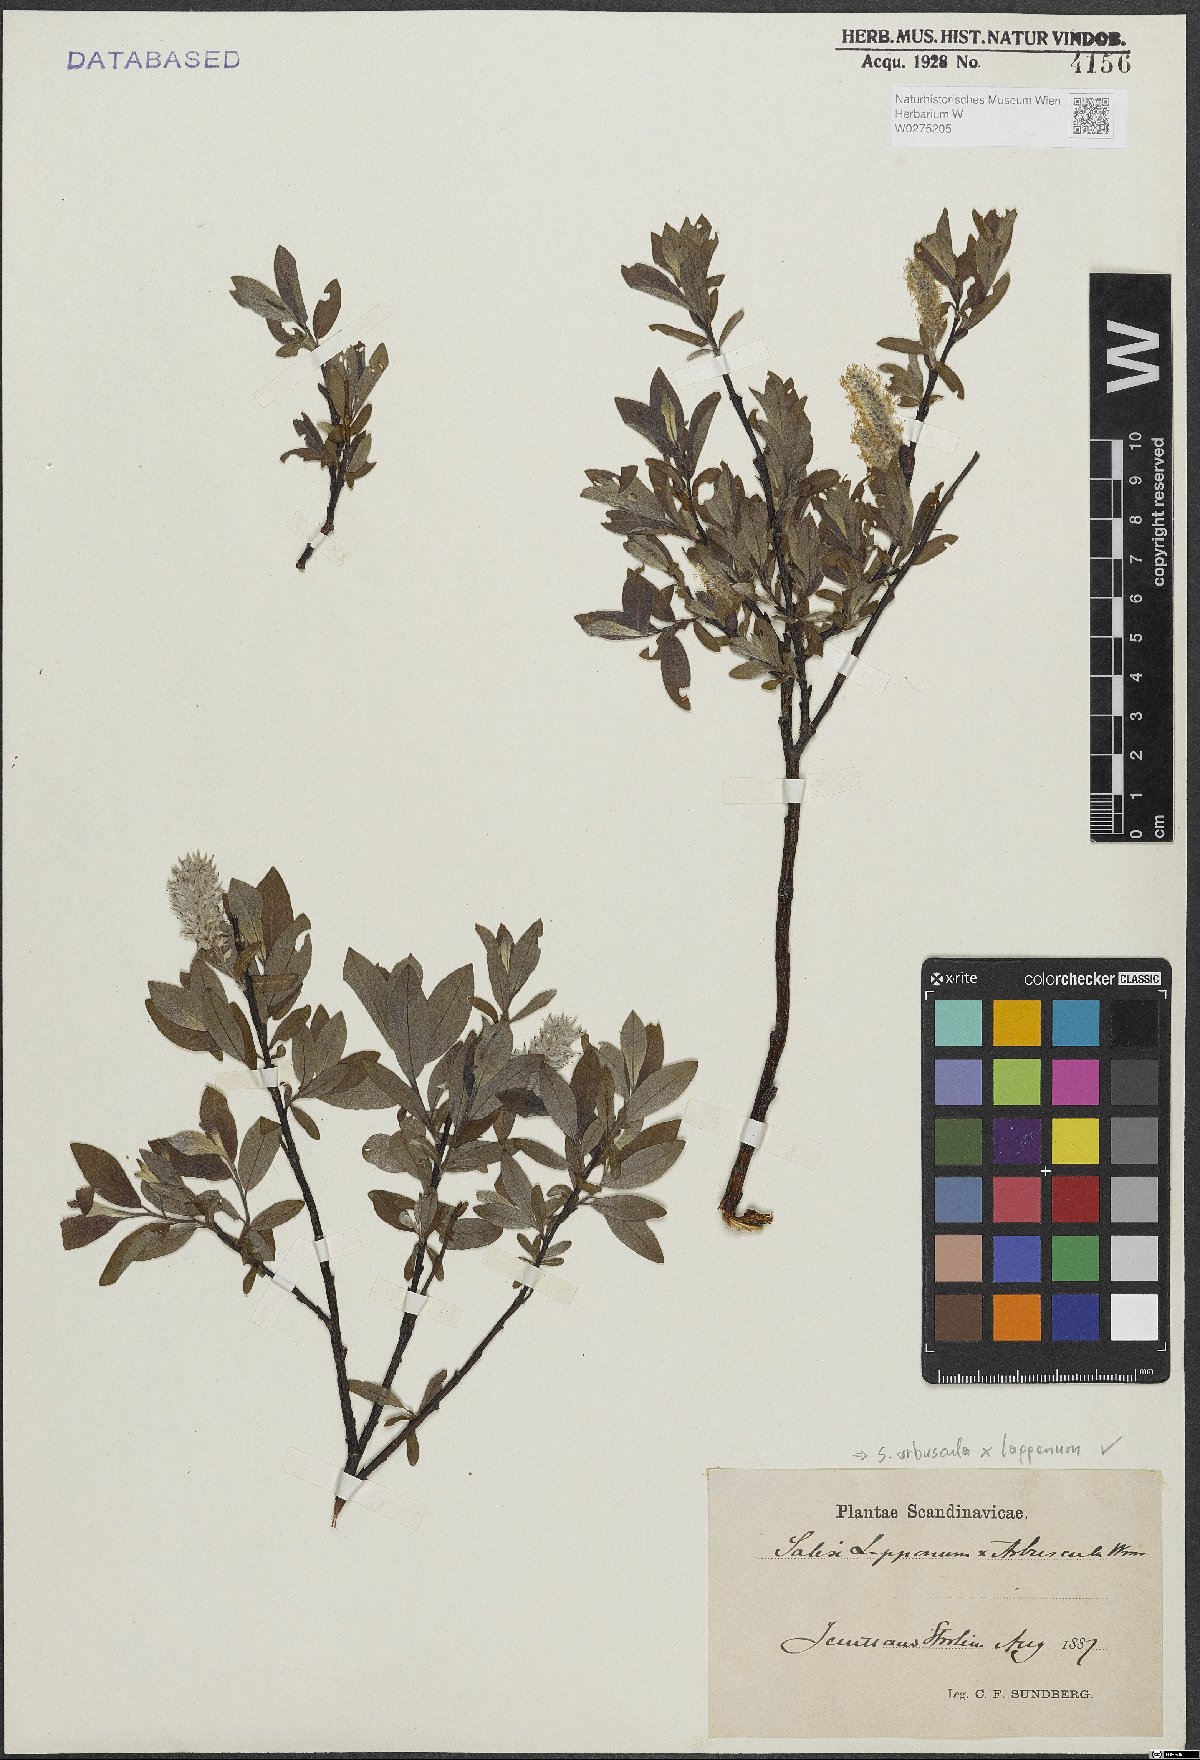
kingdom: Plantae
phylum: Tracheophyta
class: Magnoliopsida
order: Malpighiales
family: Salicaceae
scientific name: Salicaceae
